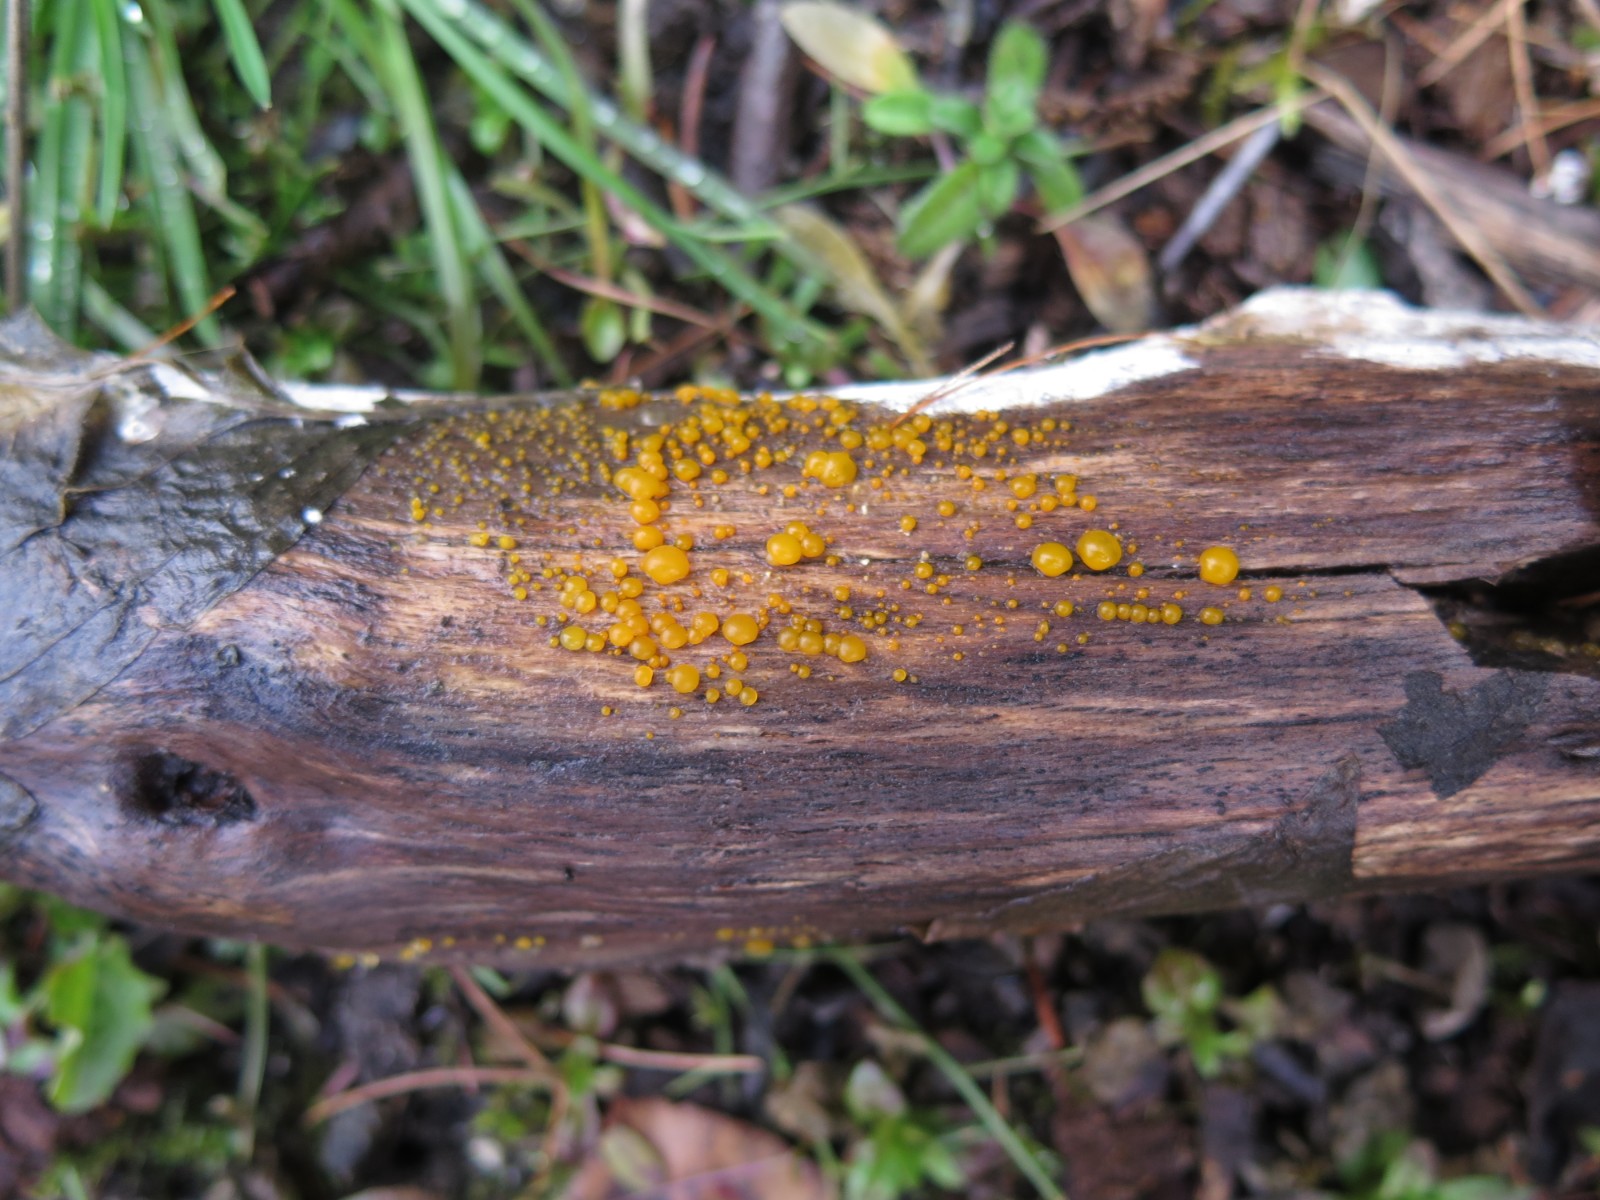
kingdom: Fungi
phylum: Basidiomycota
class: Dacrymycetes
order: Dacrymycetales
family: Dacrymycetaceae
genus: Dacrymyces
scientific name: Dacrymyces
